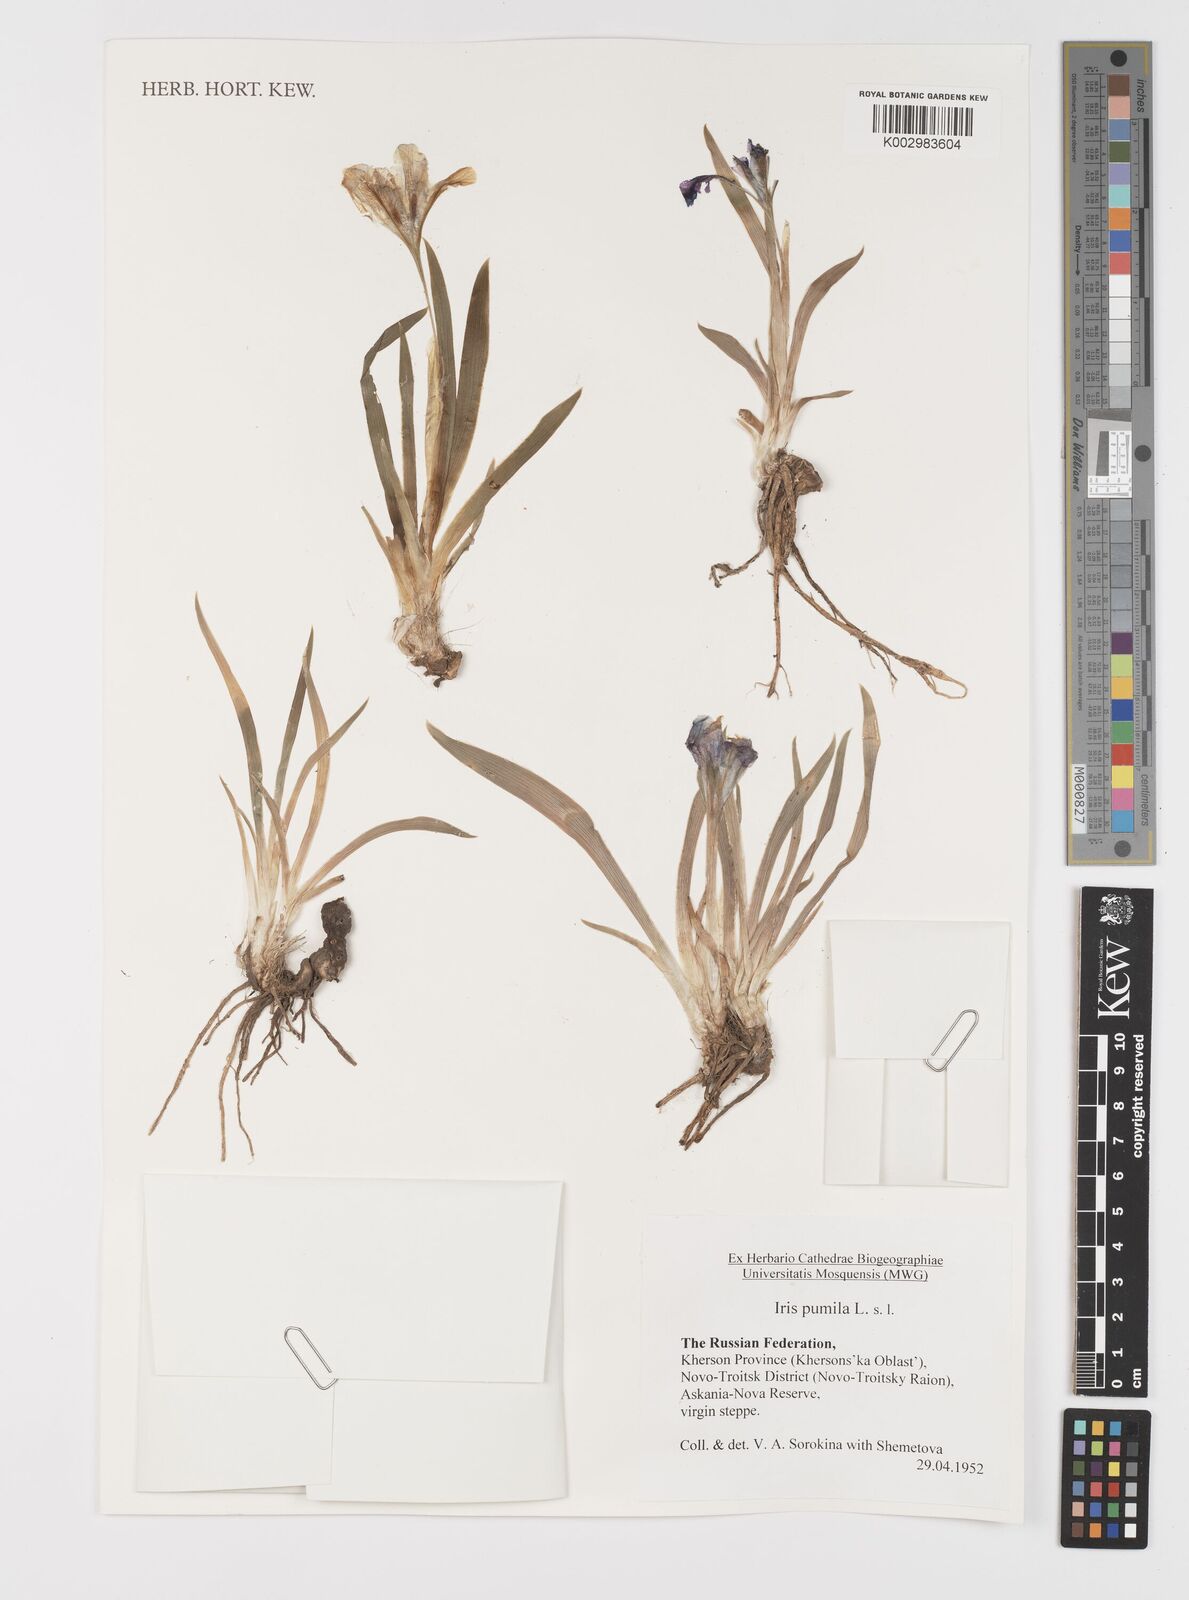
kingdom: Plantae
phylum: Tracheophyta
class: Liliopsida
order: Asparagales
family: Iridaceae
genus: Iris
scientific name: Iris pumila
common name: Dwarf iris
